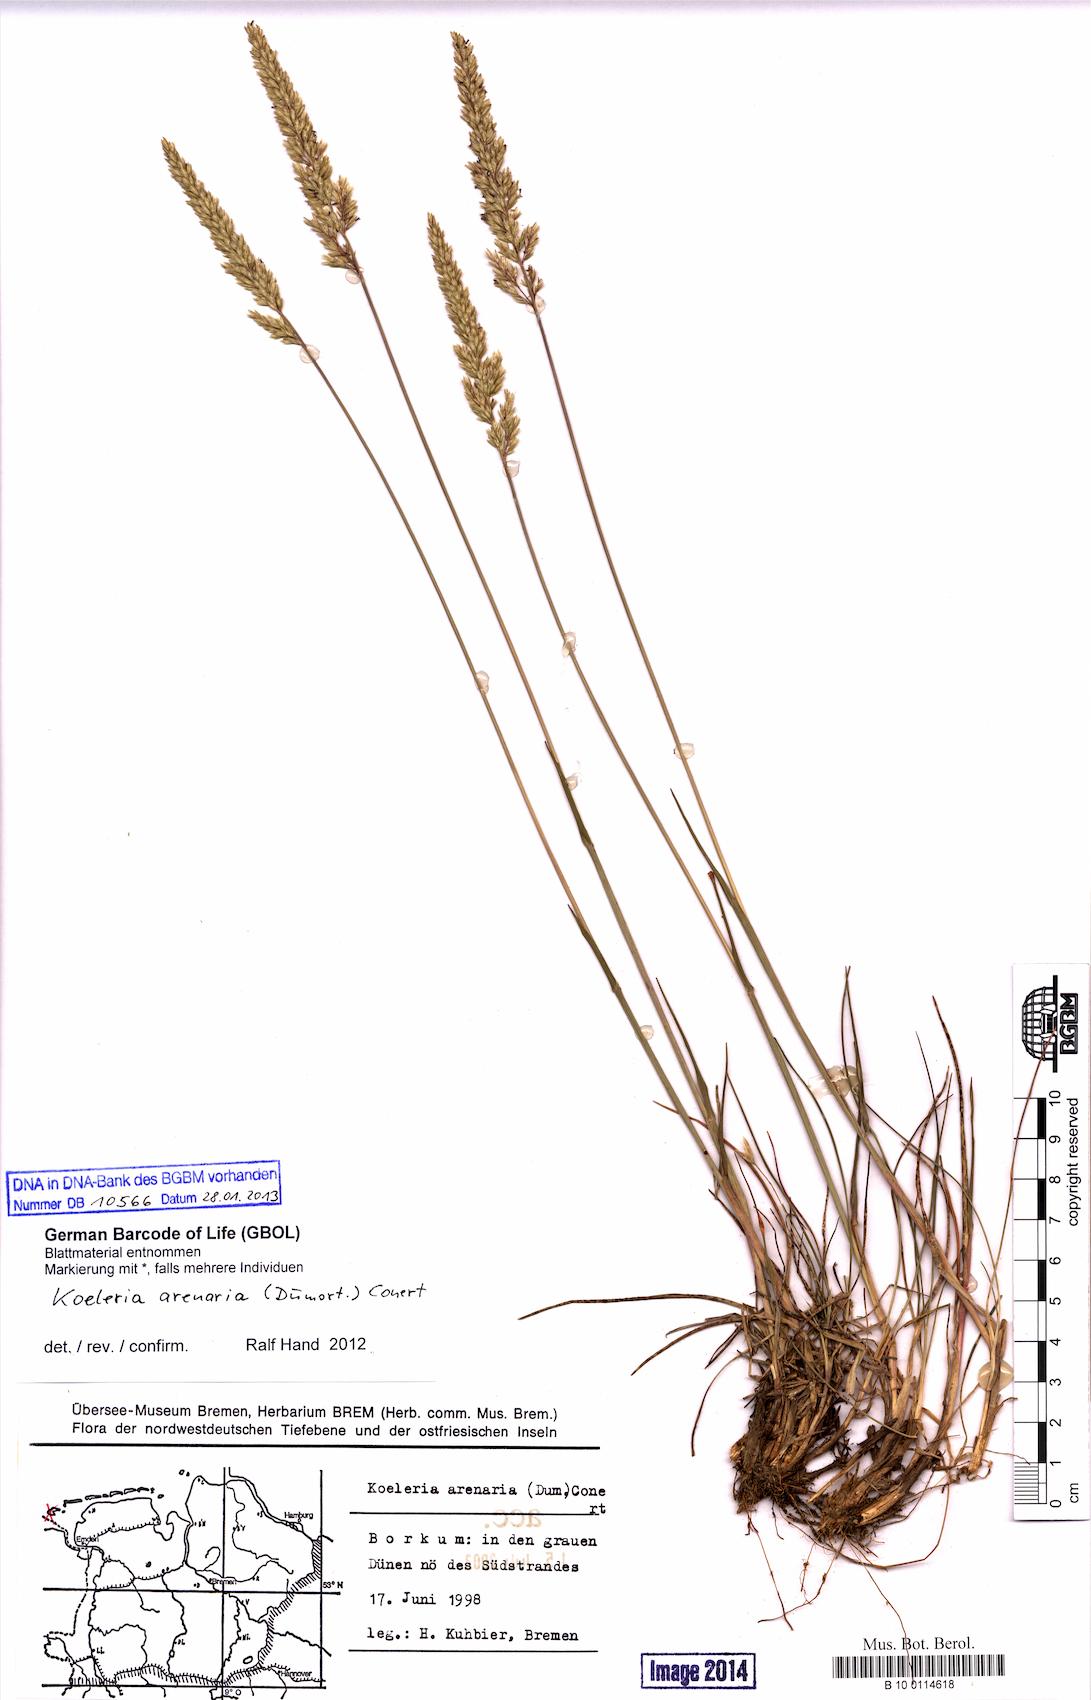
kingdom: Plantae
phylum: Tracheophyta
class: Liliopsida
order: Poales
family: Poaceae
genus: Koeleria
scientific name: Koeleria glauca
